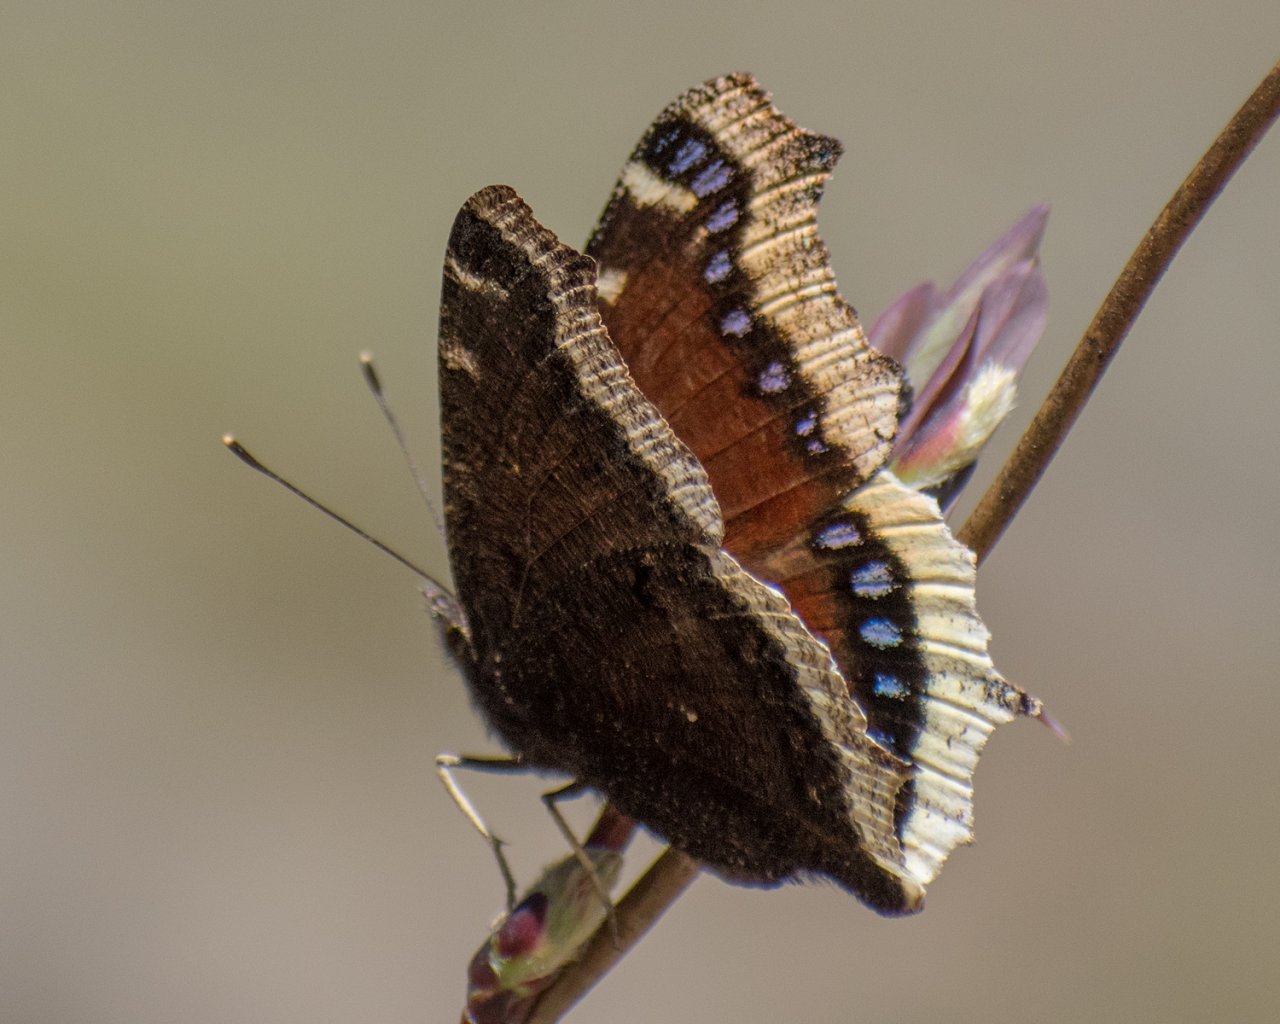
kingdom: Animalia
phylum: Arthropoda
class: Insecta
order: Lepidoptera
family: Nymphalidae
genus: Nymphalis
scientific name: Nymphalis antiopa
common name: Mourning Cloak
